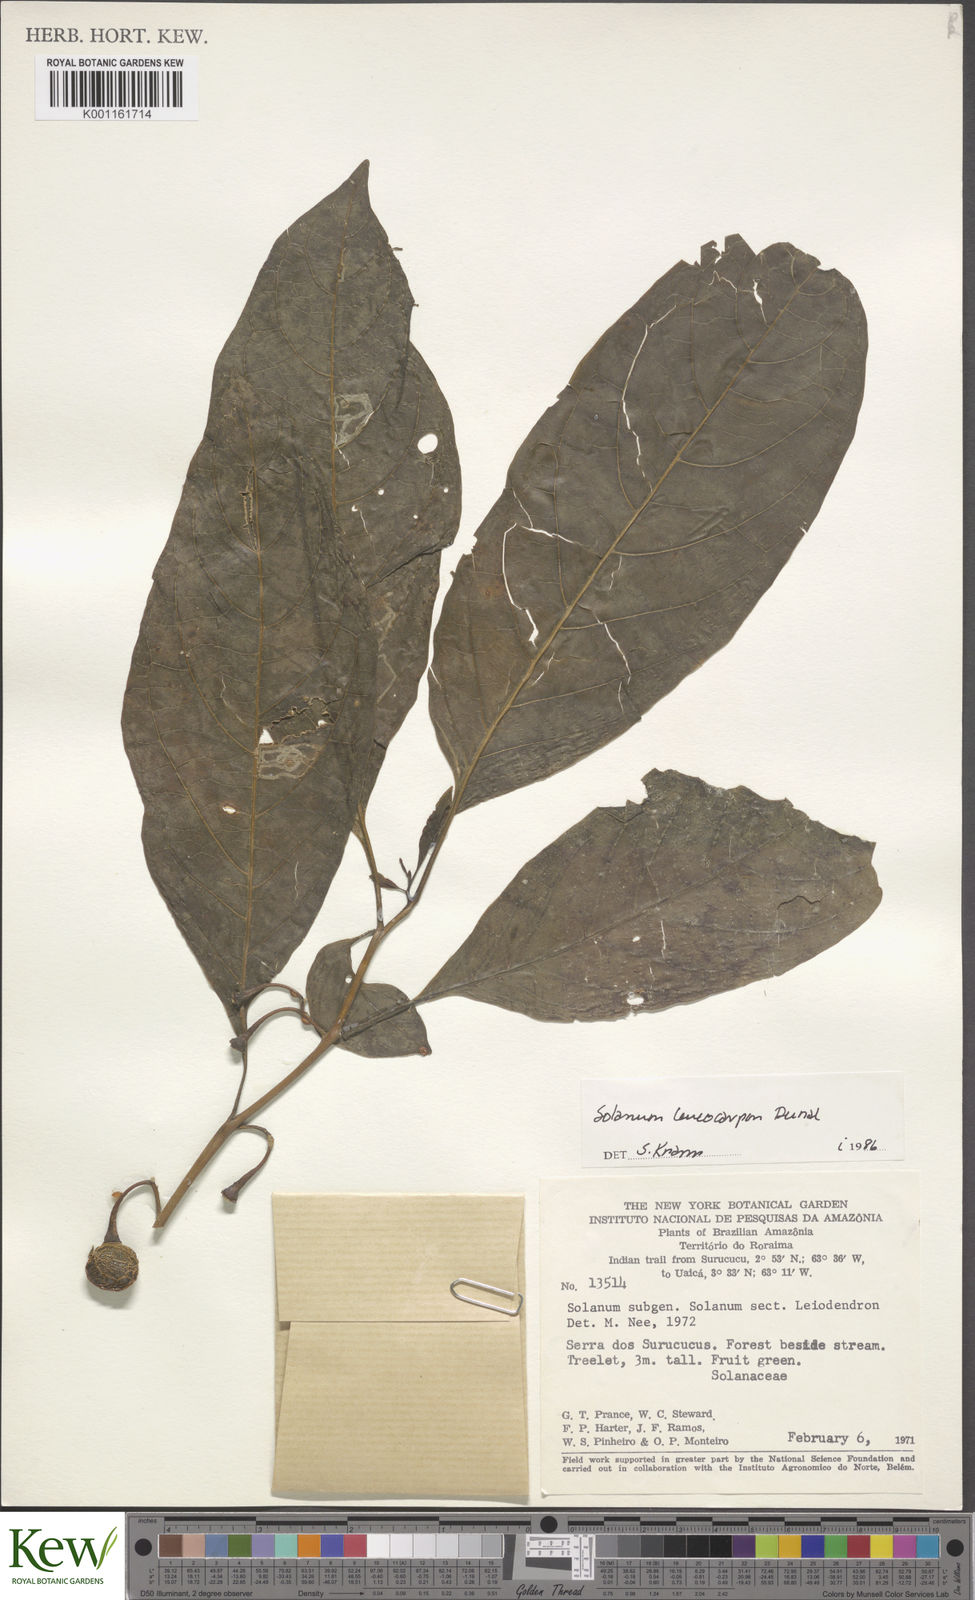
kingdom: Plantae
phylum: Tracheophyta
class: Magnoliopsida
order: Solanales
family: Solanaceae
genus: Solanum
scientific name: Solanum leucocarpon
